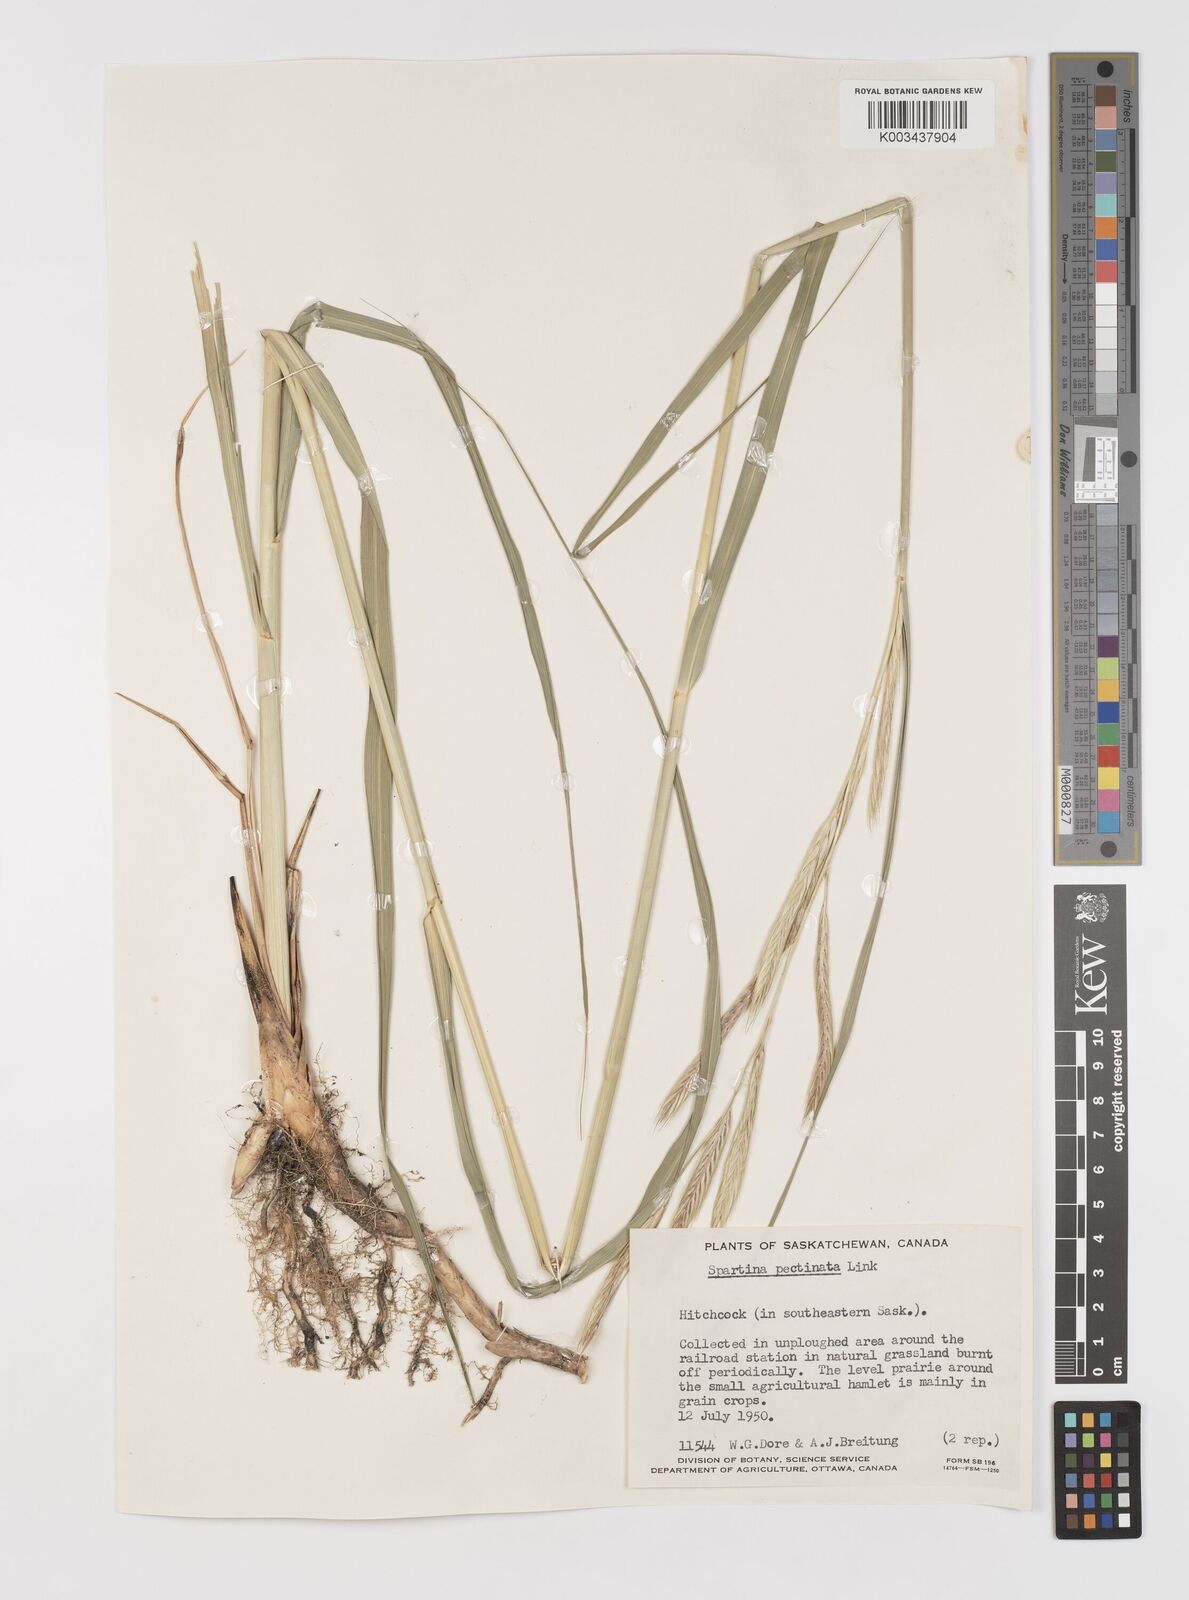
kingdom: Plantae
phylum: Tracheophyta
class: Liliopsida
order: Poales
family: Poaceae
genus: Sporobolus
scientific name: Sporobolus michauxianus
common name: Freshwater cordgrass
